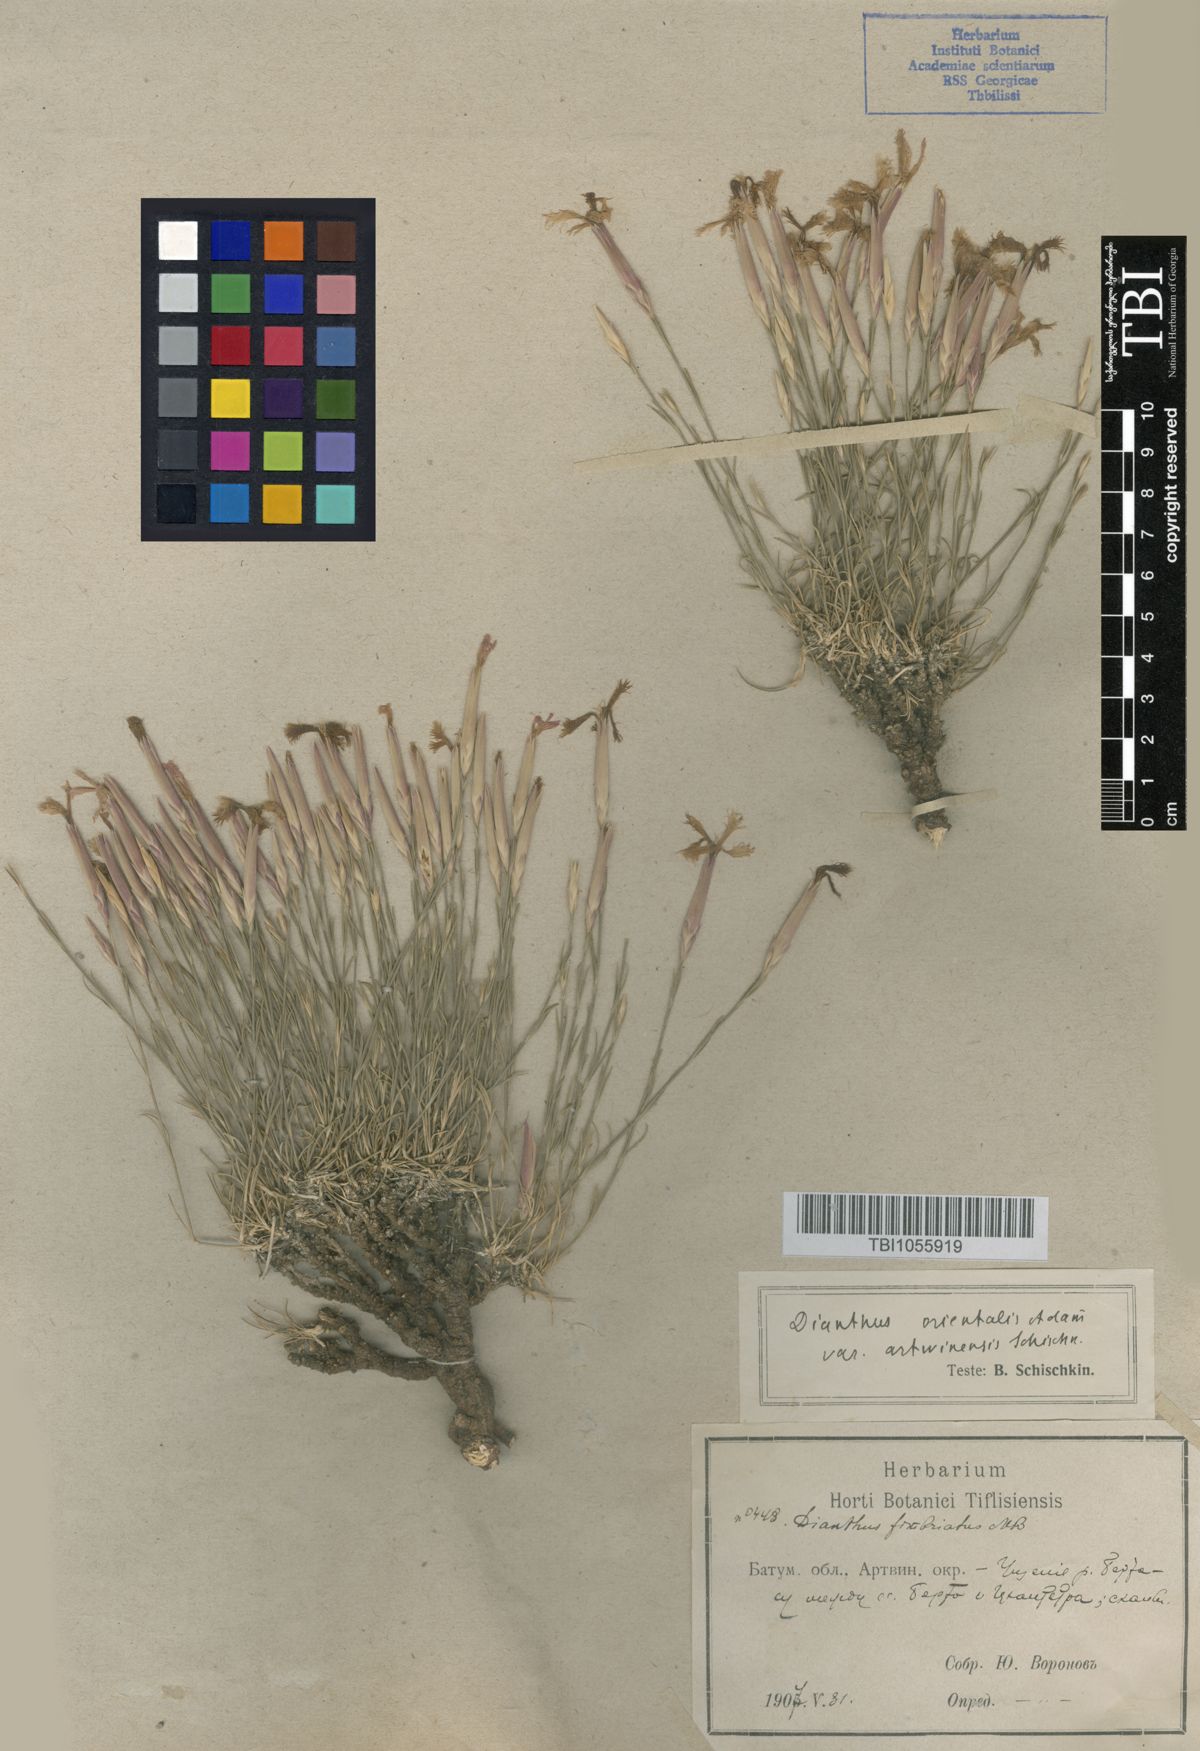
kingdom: Plantae
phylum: Tracheophyta
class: Magnoliopsida
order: Caryophyllales
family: Caryophyllaceae
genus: Dianthus
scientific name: Dianthus orientalis
